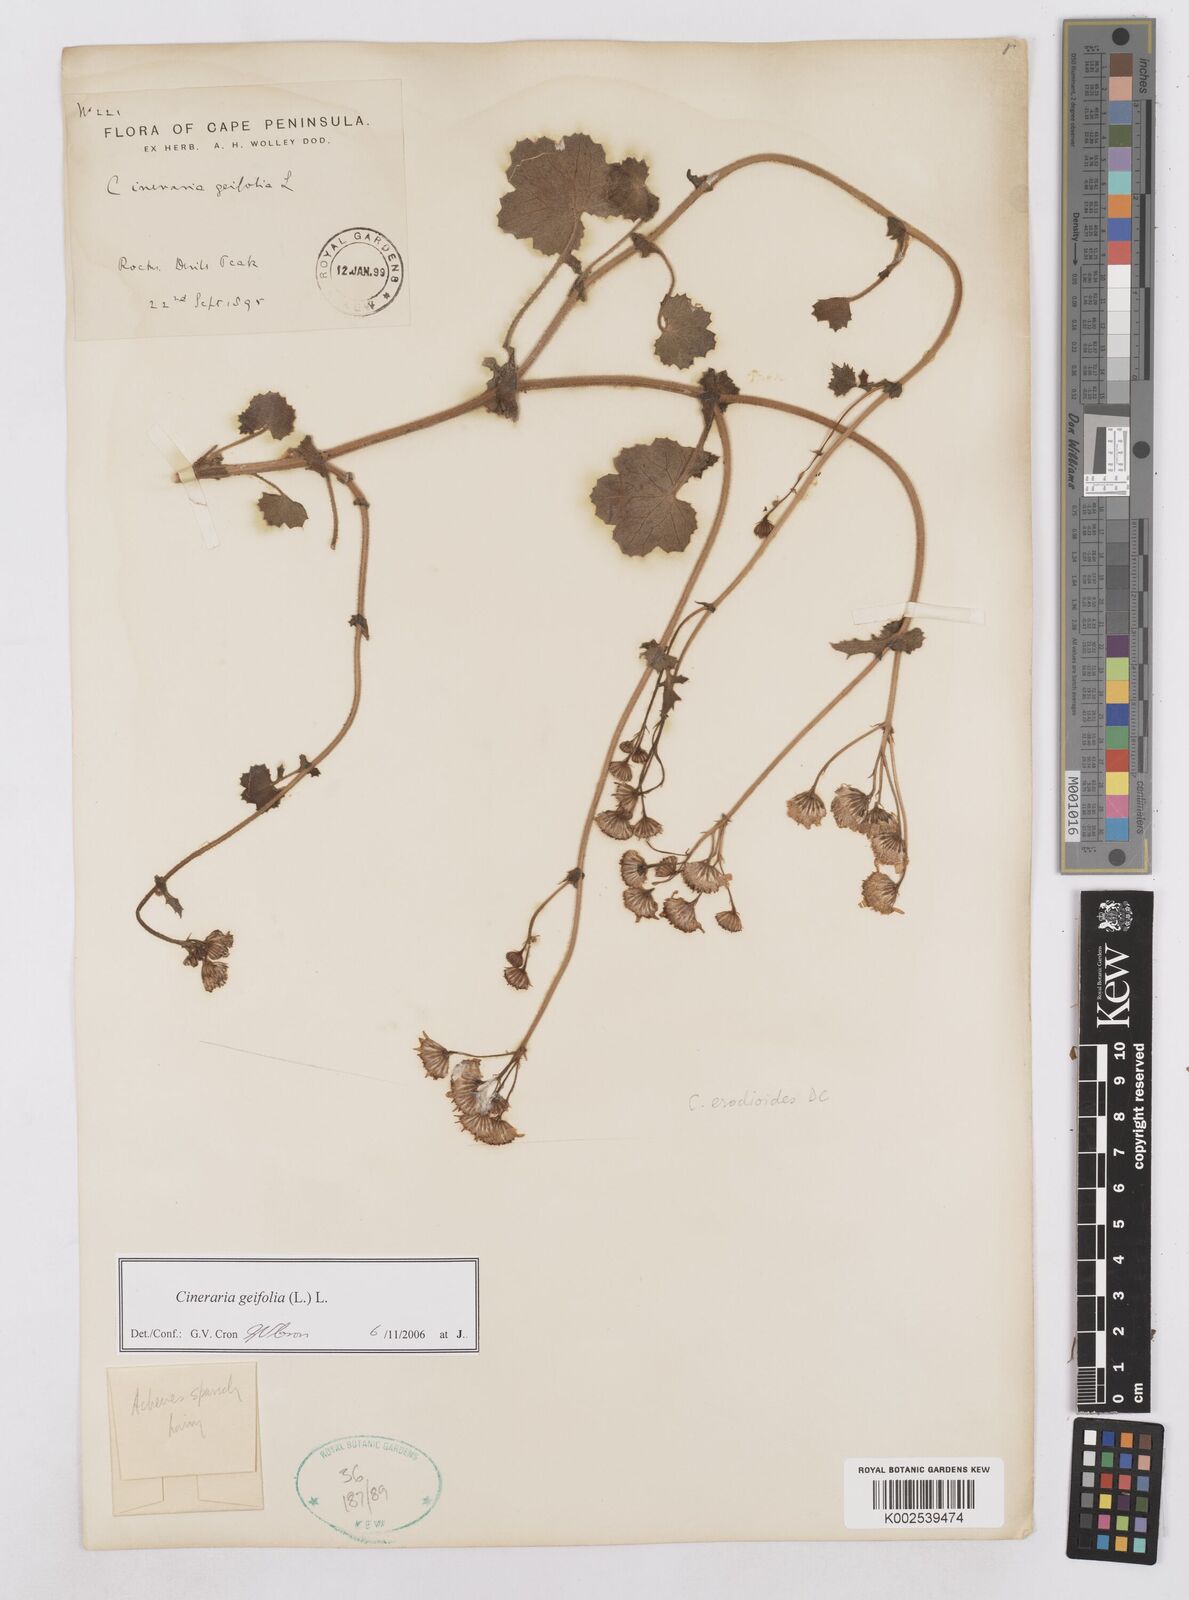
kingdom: Plantae
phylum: Tracheophyta
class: Magnoliopsida
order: Asterales
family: Asteraceae
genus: Cineraria
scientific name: Cineraria geifolia
